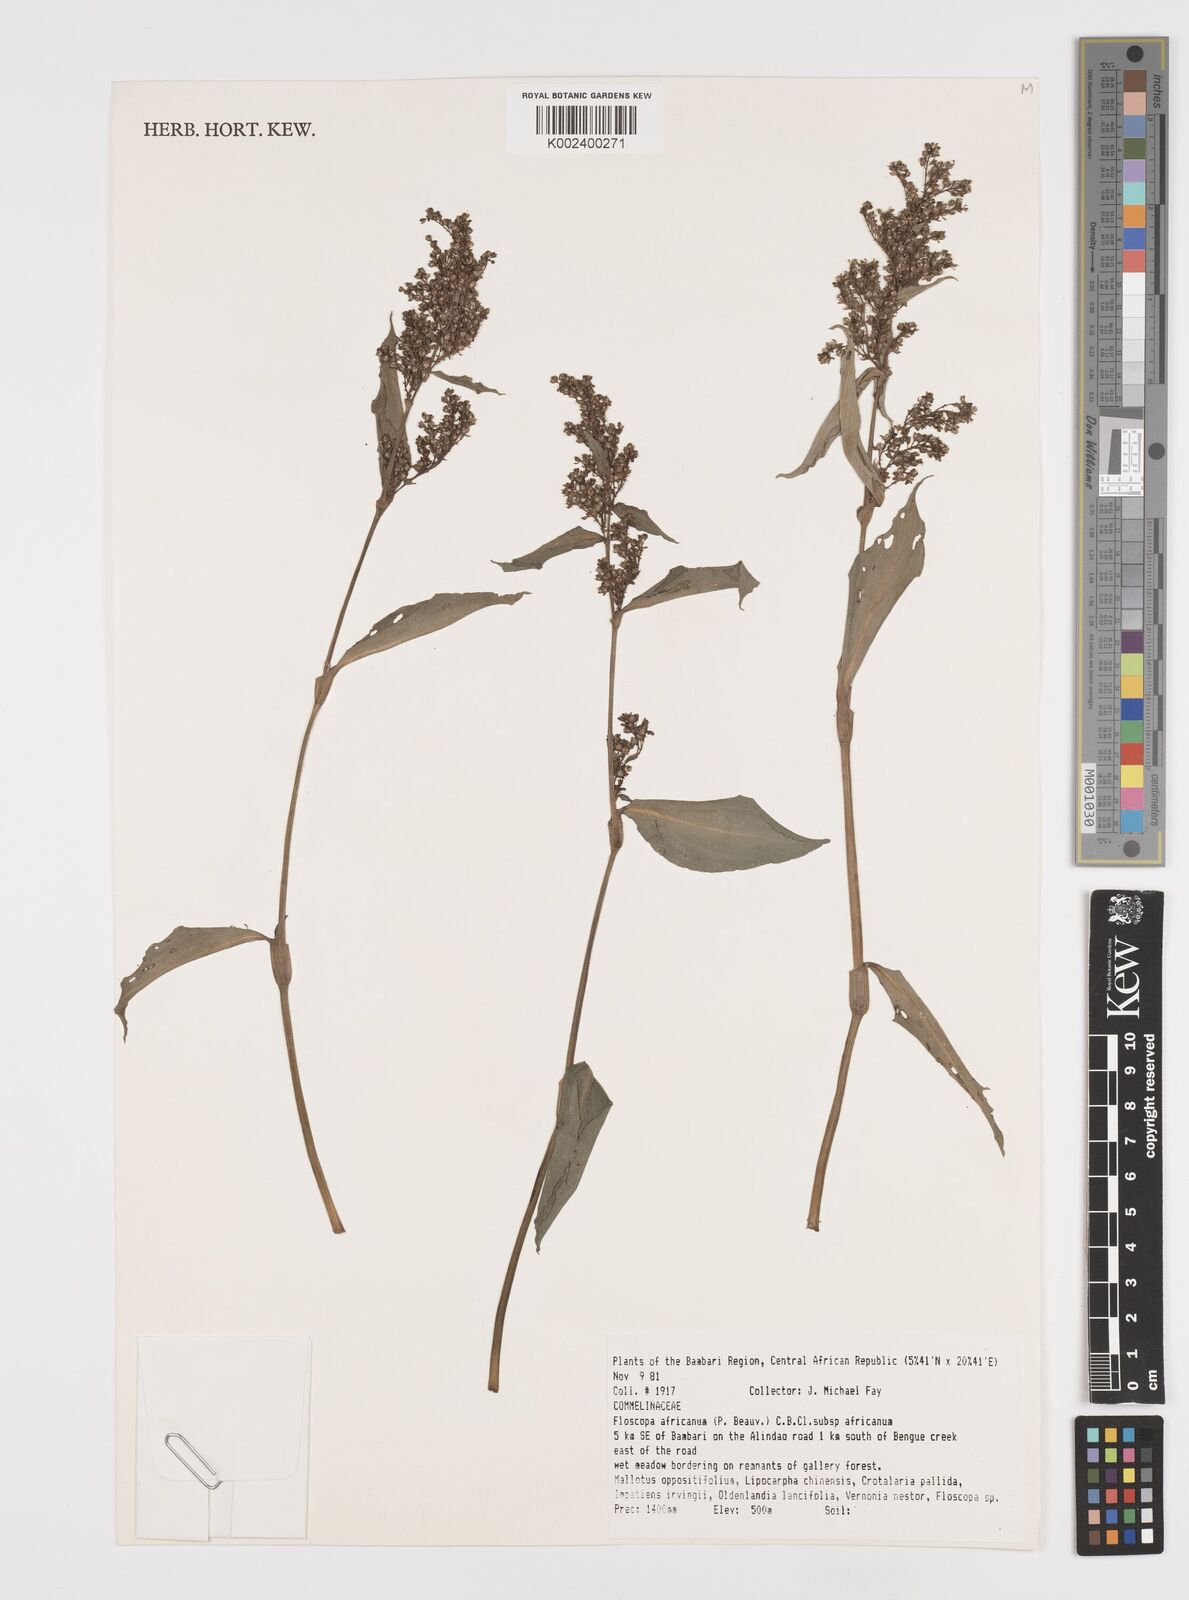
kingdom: Plantae
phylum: Tracheophyta
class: Liliopsida
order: Commelinales
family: Commelinaceae
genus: Floscopa
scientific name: Floscopa africana
